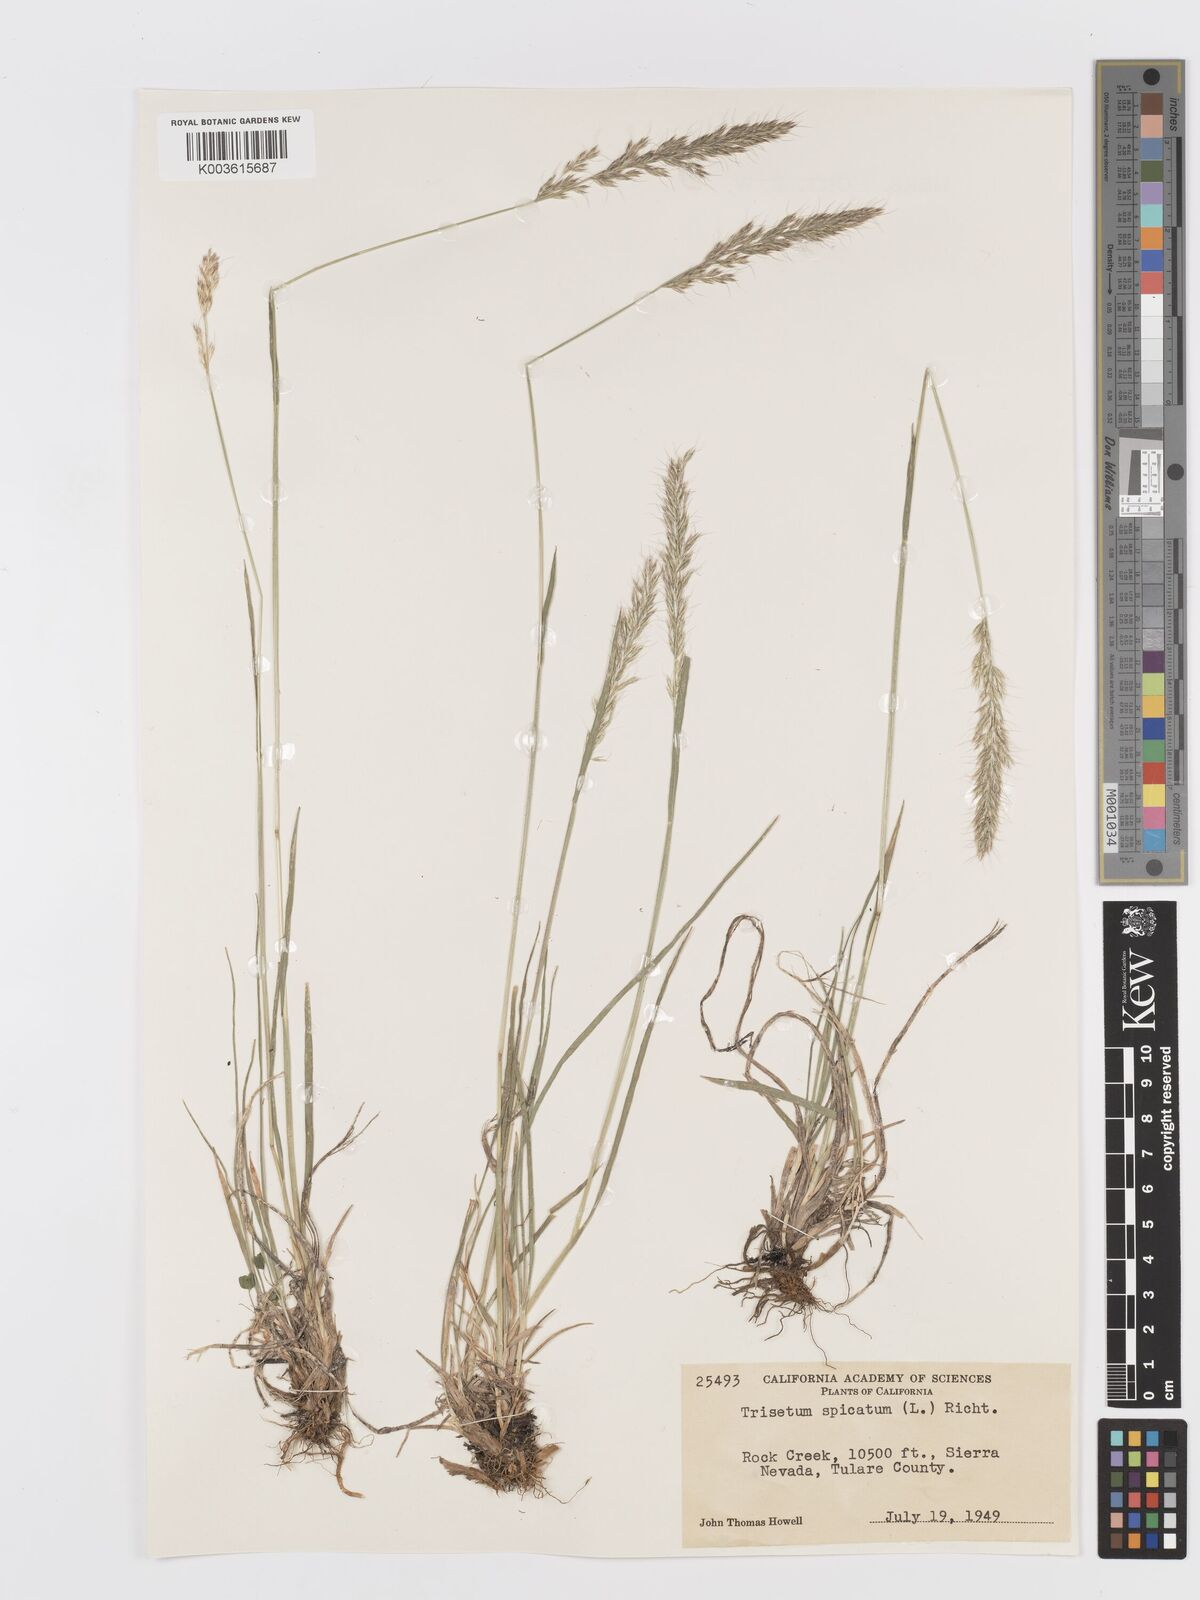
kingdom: Plantae
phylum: Tracheophyta
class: Liliopsida
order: Poales
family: Poaceae
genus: Koeleria
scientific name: Koeleria spicata
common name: Mountain trisetum
